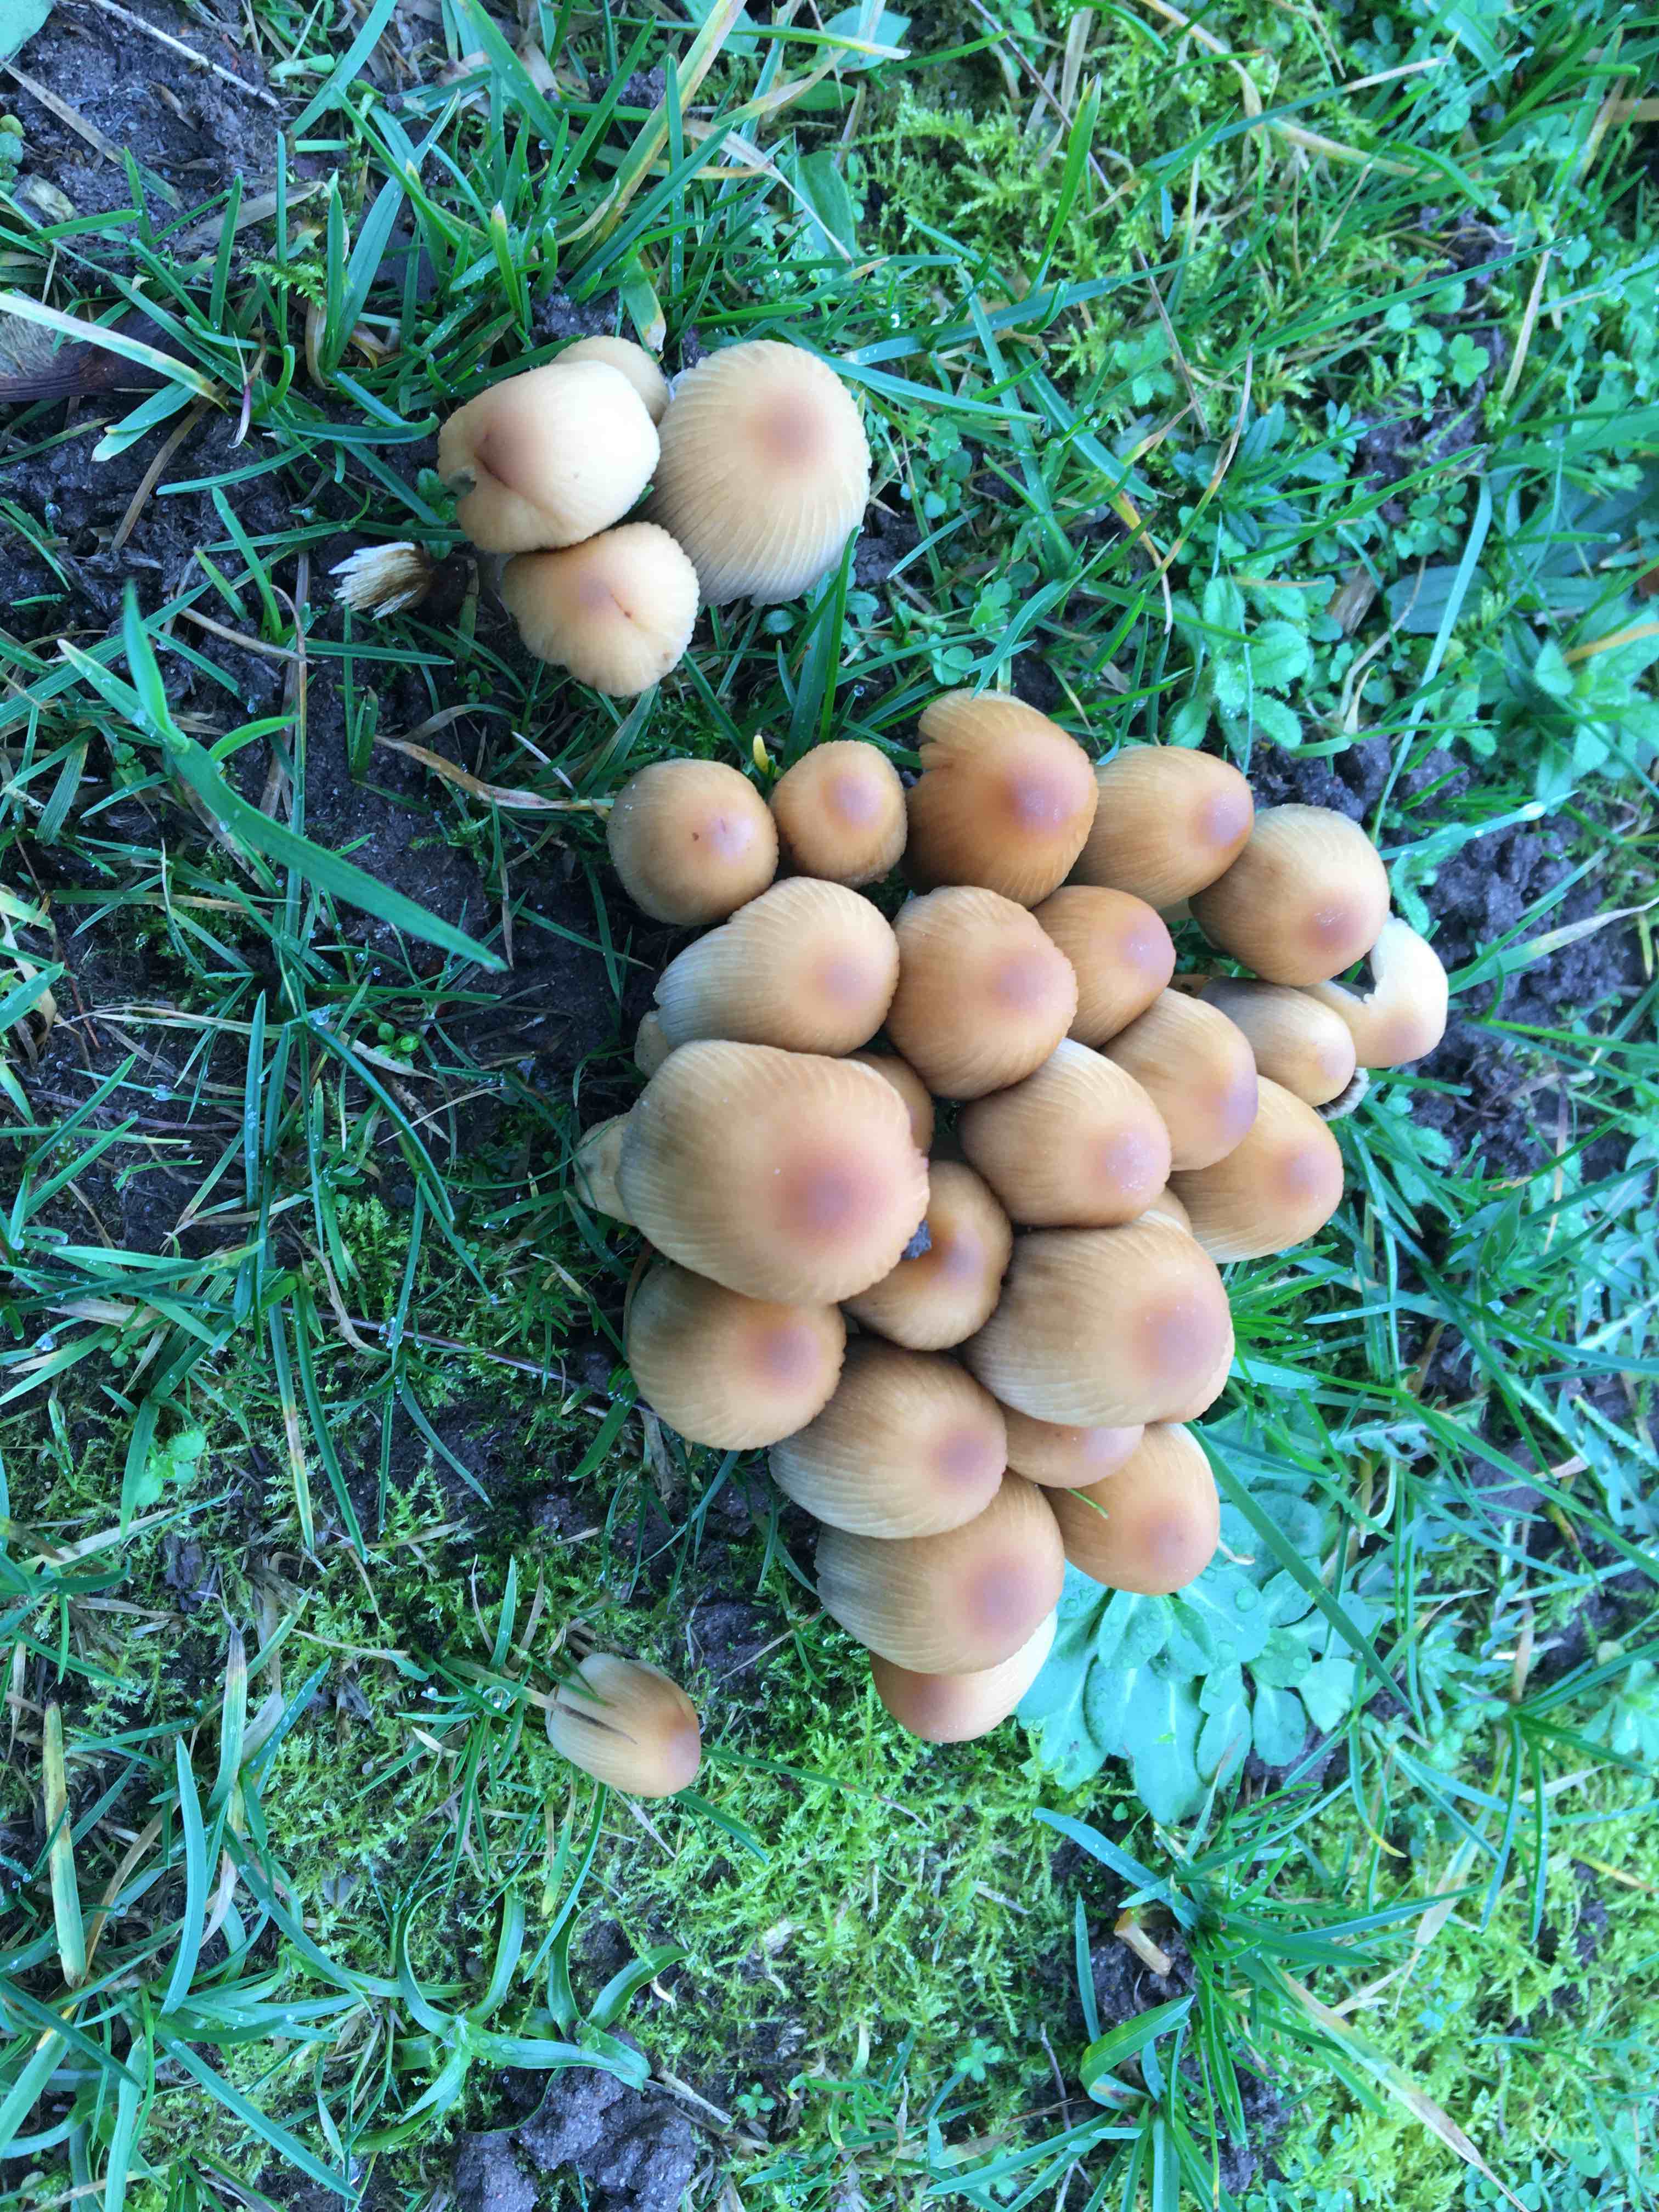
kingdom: Fungi
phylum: Basidiomycota
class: Agaricomycetes
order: Agaricales
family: Psathyrellaceae
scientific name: Psathyrellaceae
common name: mørkhatfamilien
